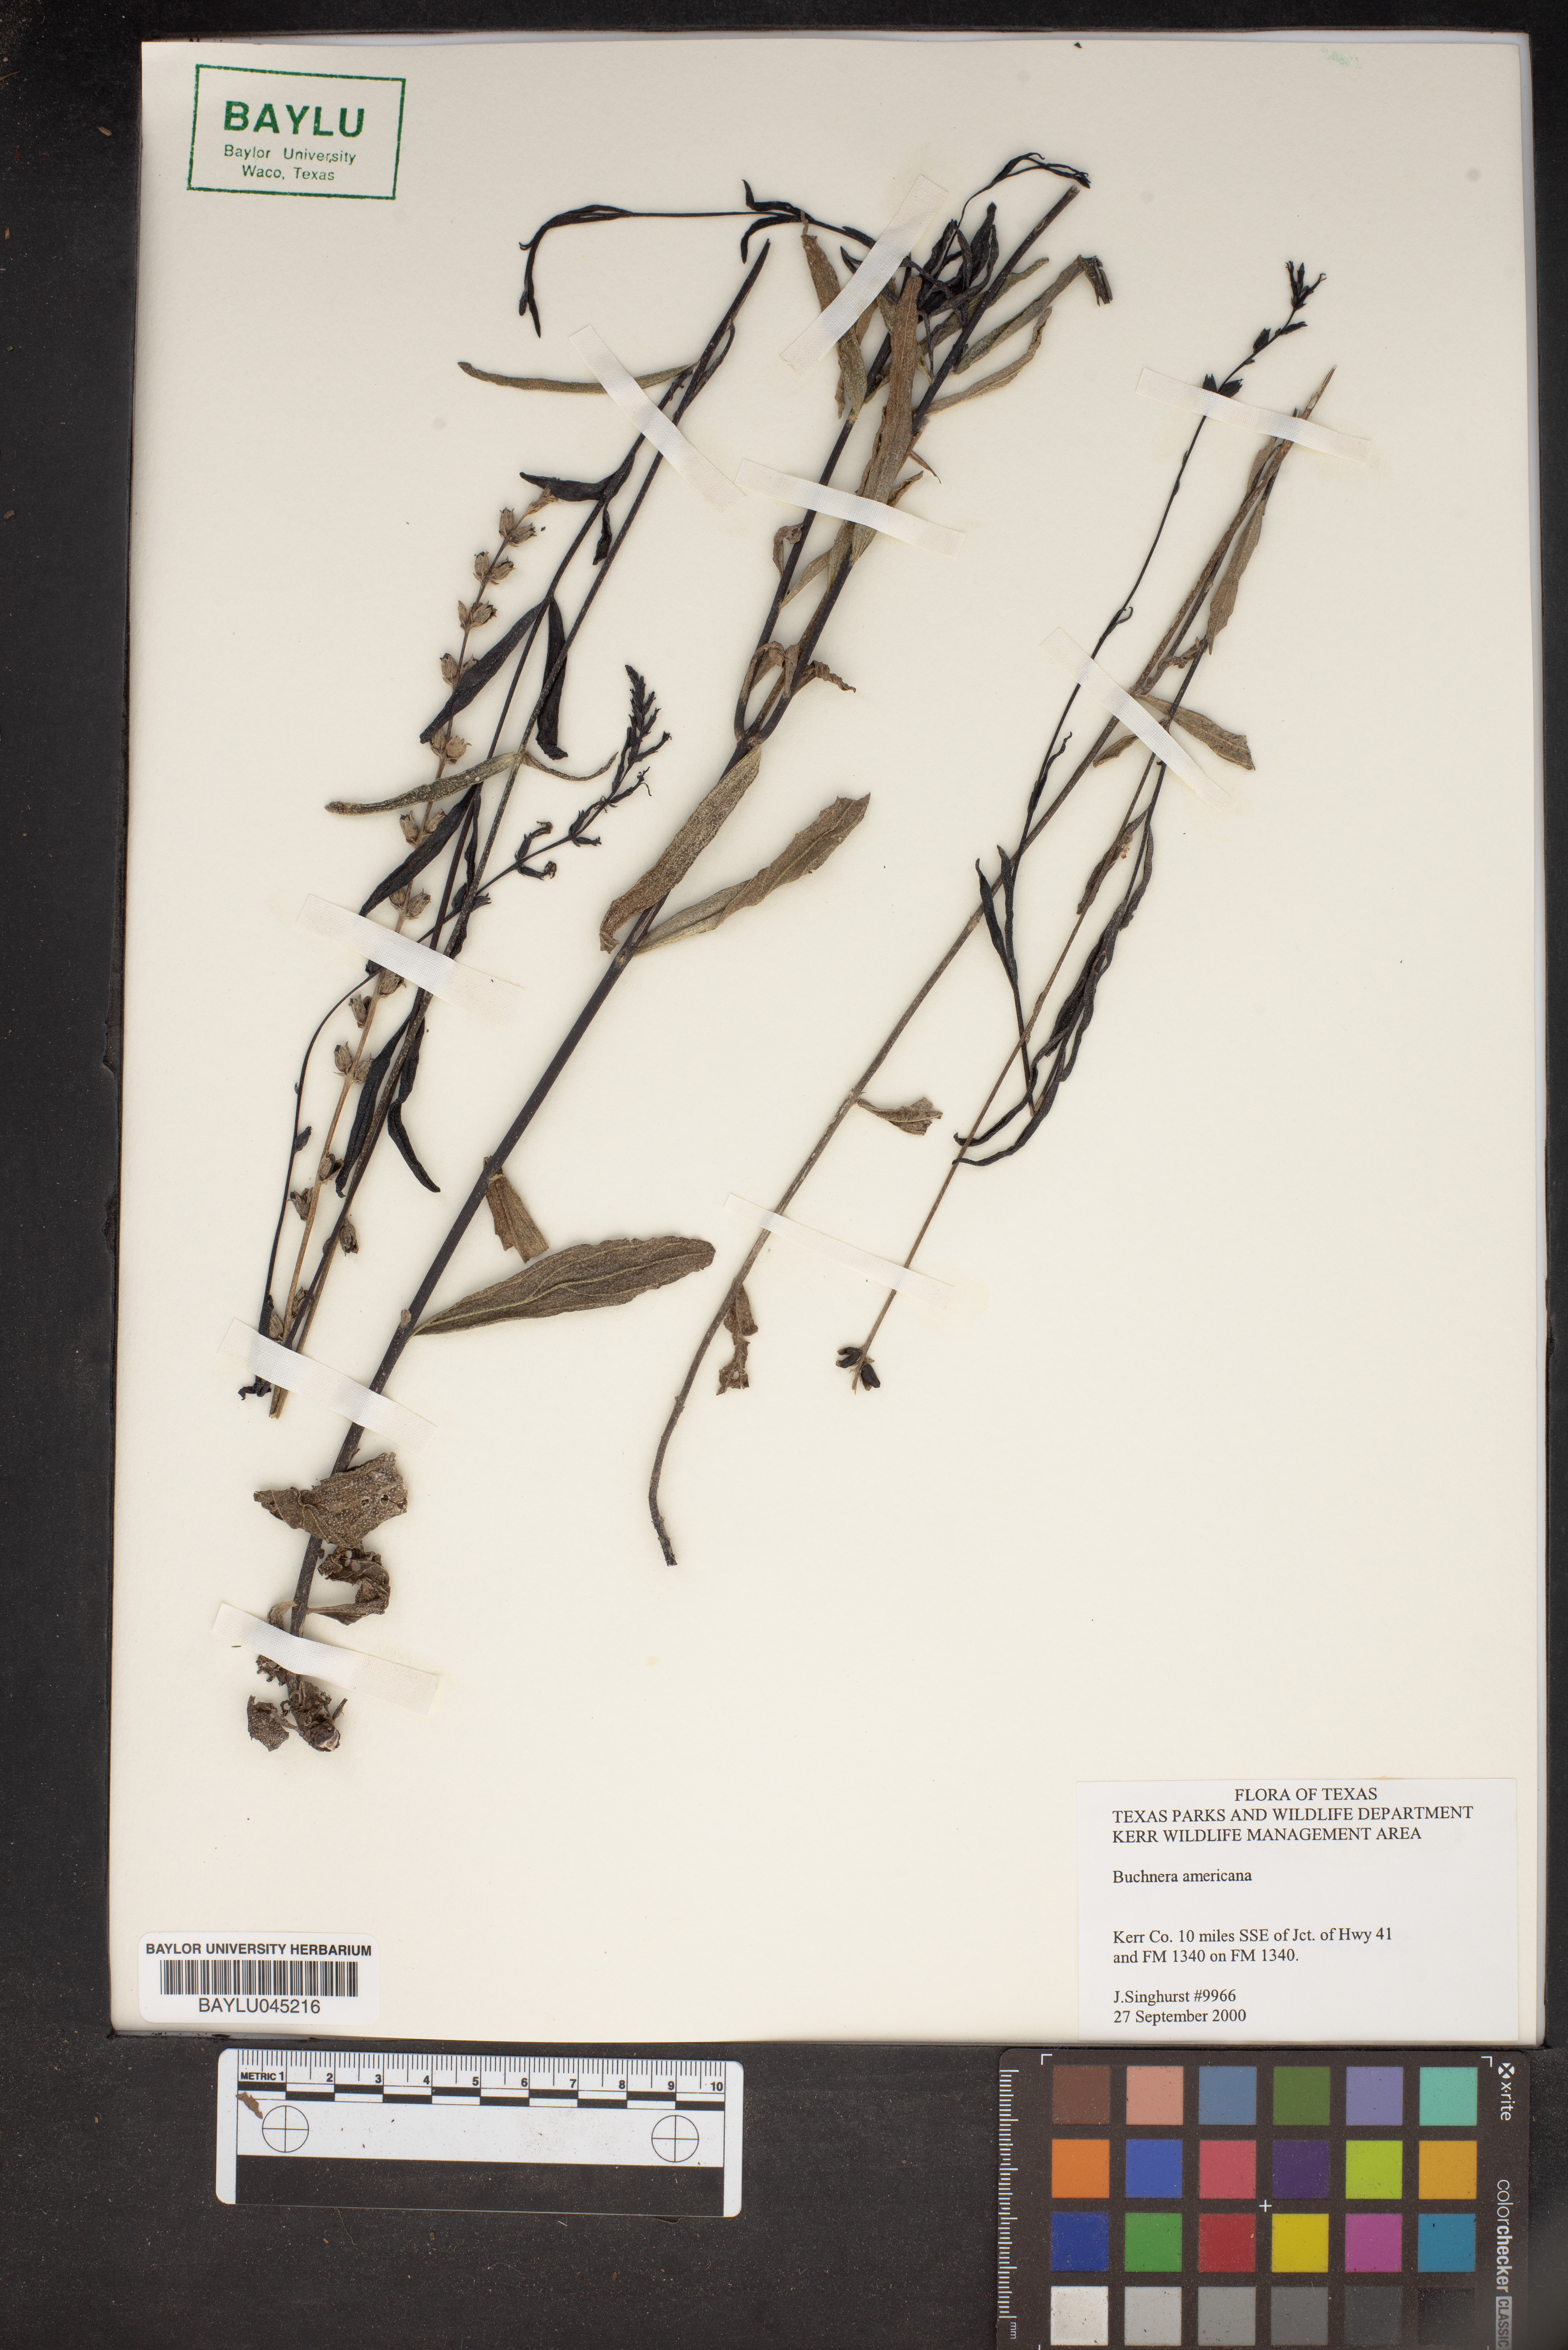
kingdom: Plantae
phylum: Tracheophyta
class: Magnoliopsida
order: Lamiales
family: Orobanchaceae
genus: Buchnera
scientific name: Buchnera americana
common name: American bluehearts
